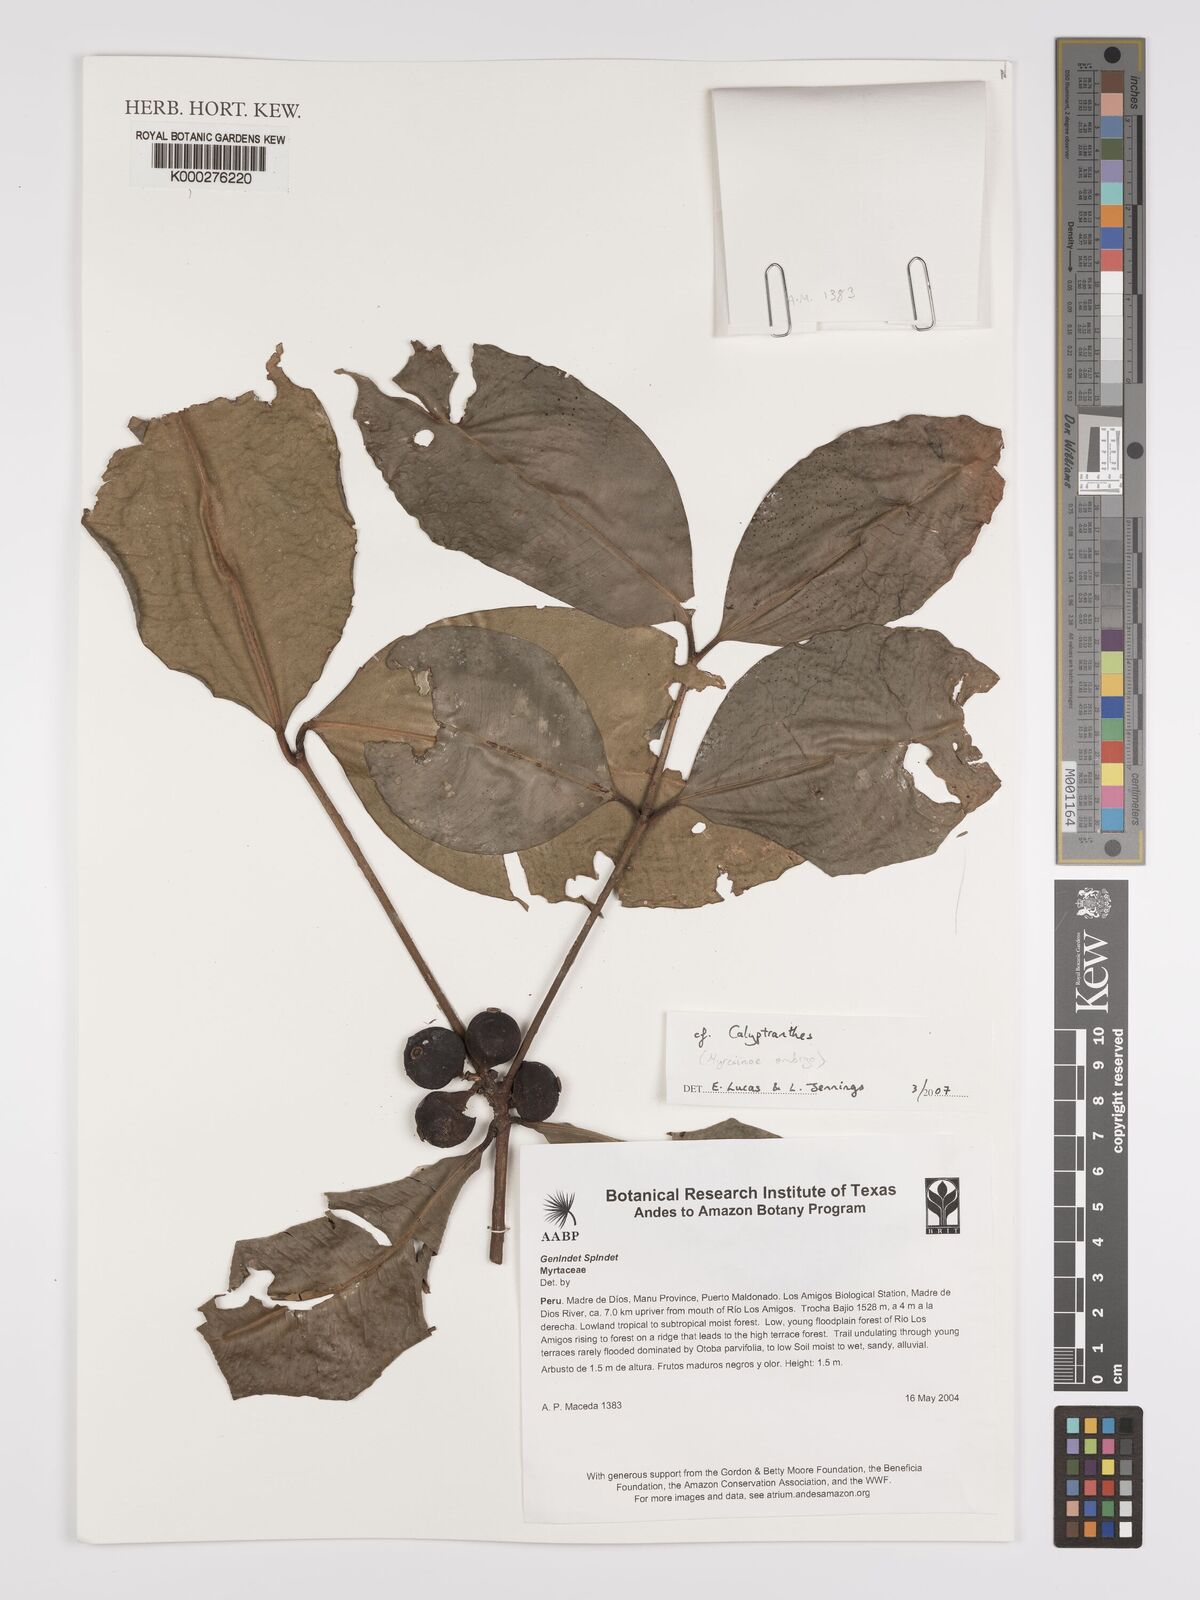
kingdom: Plantae
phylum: Tracheophyta
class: Magnoliopsida
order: Myrtales
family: Myrtaceae
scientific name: Myrtaceae
